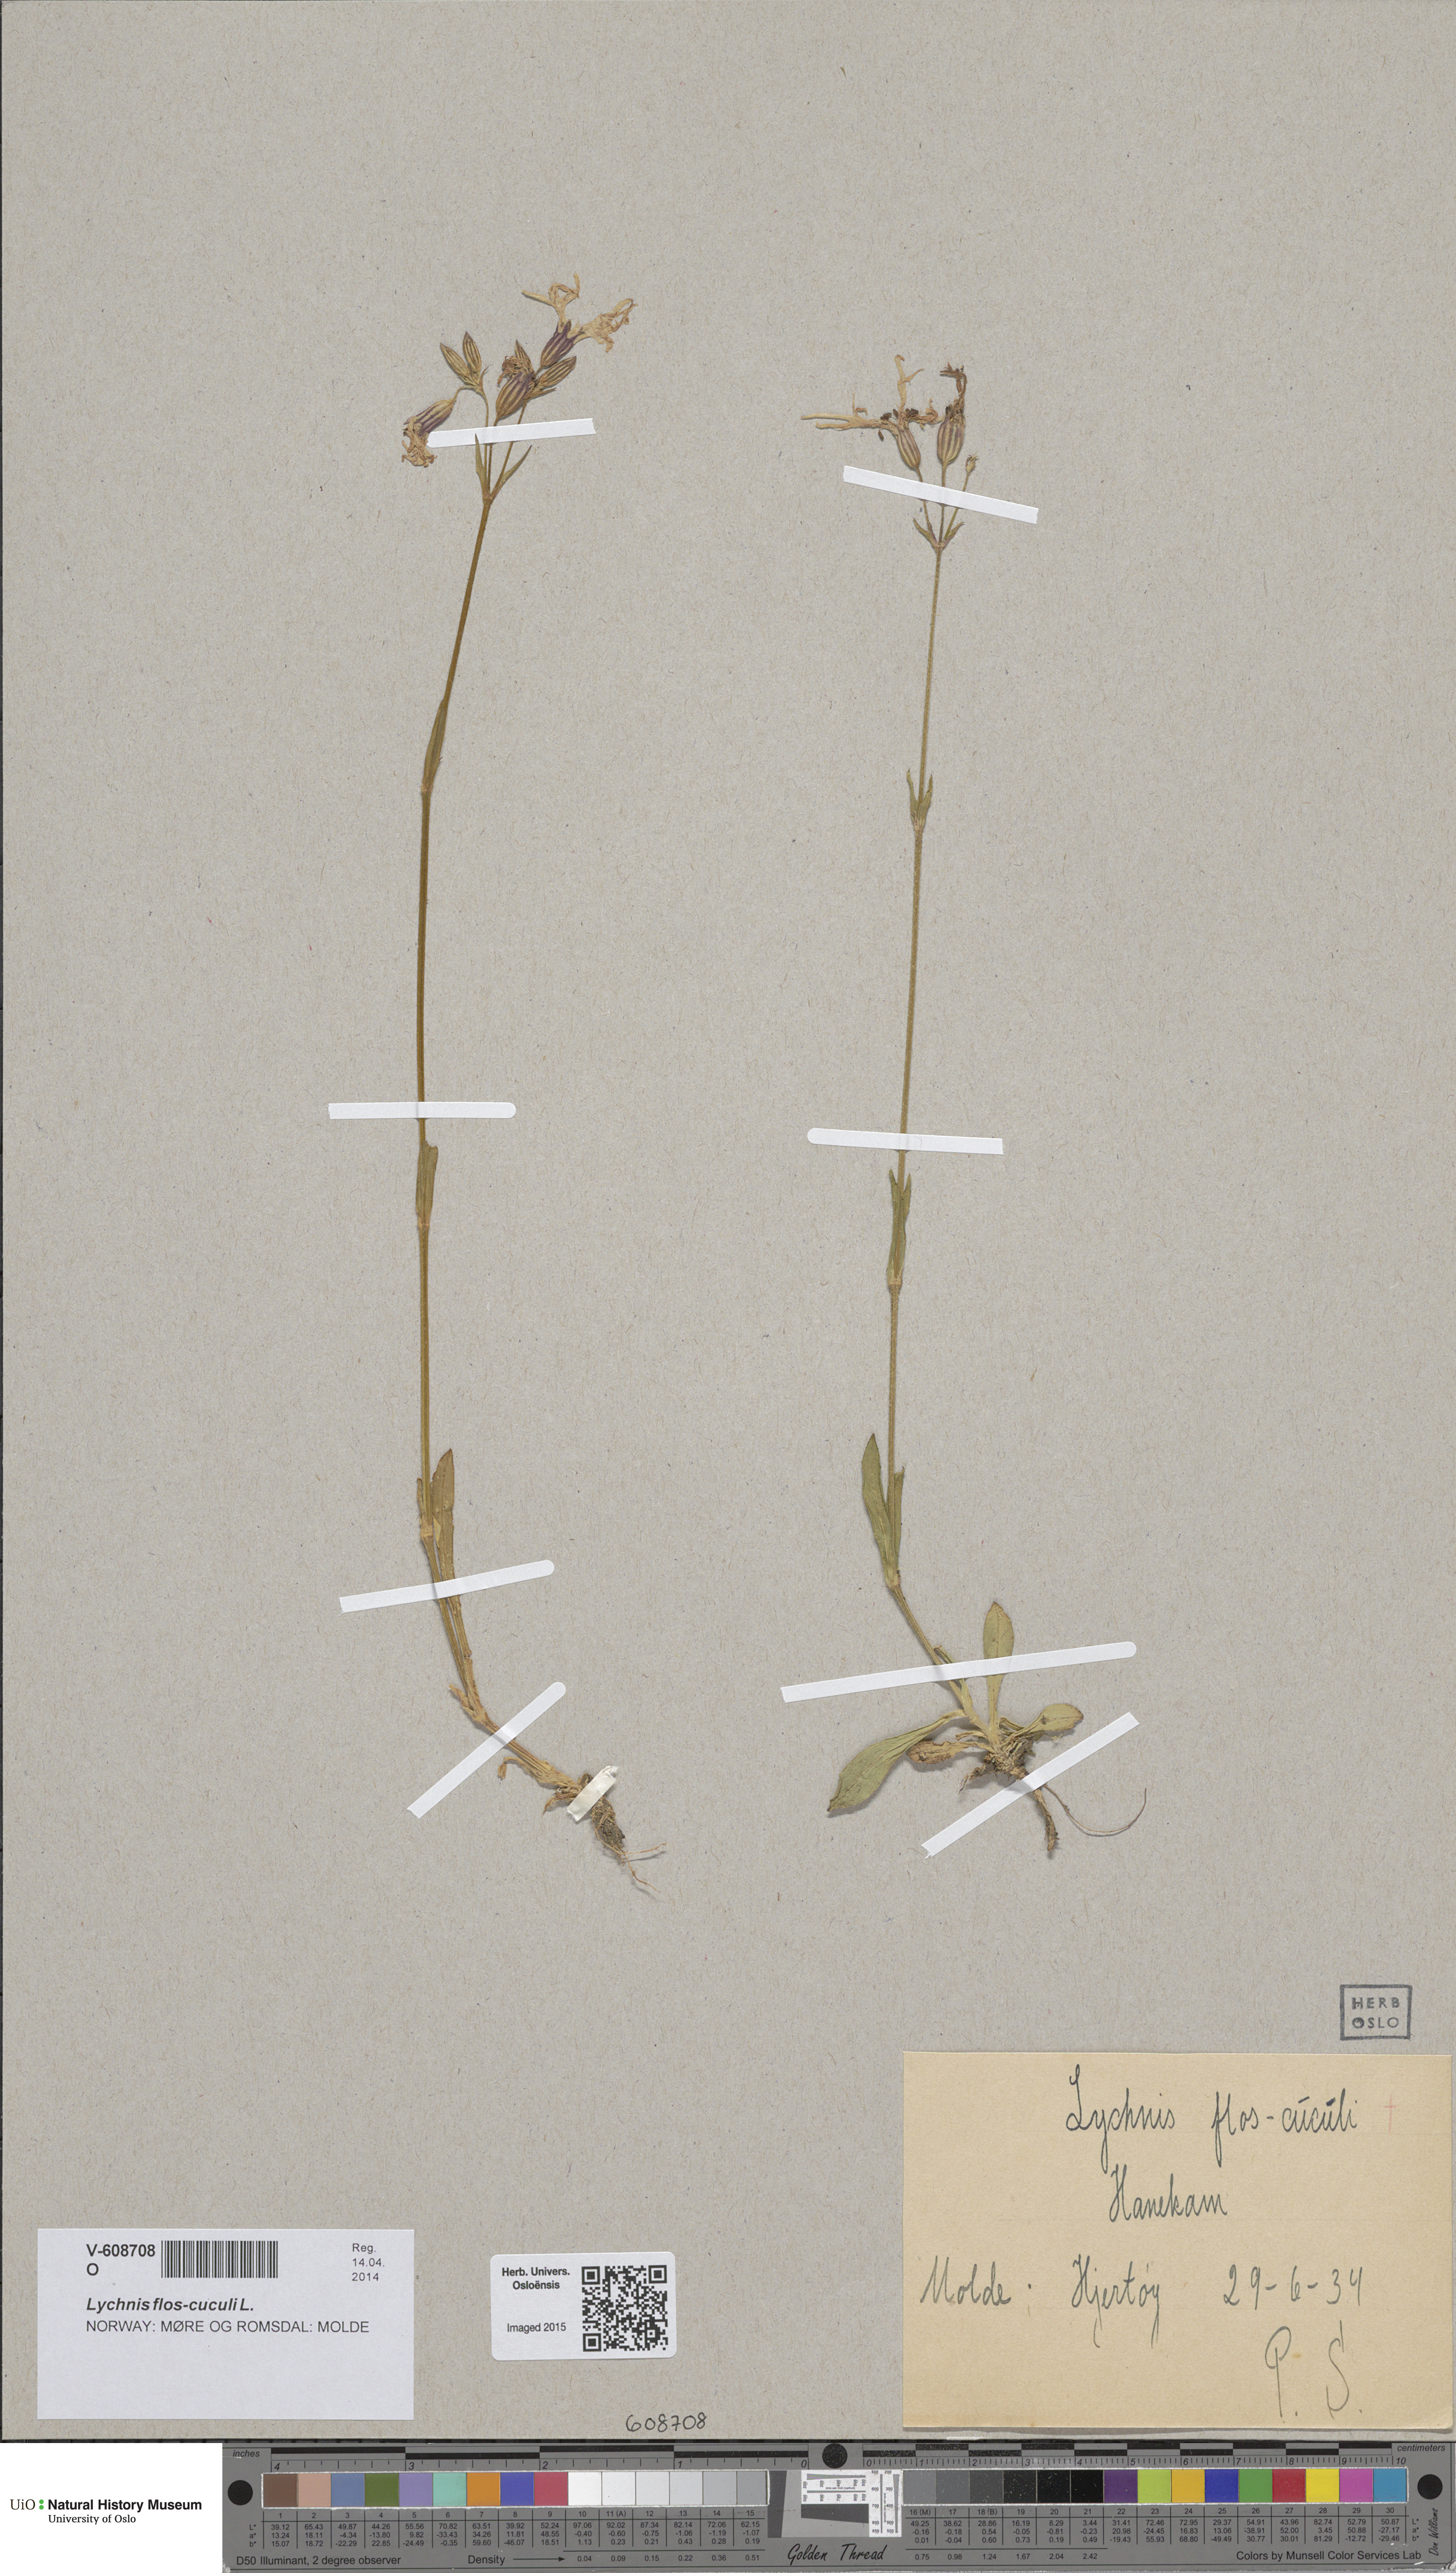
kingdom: Plantae
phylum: Tracheophyta
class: Magnoliopsida
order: Caryophyllales
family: Caryophyllaceae
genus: Silene
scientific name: Silene flos-cuculi
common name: Ragged-robin
